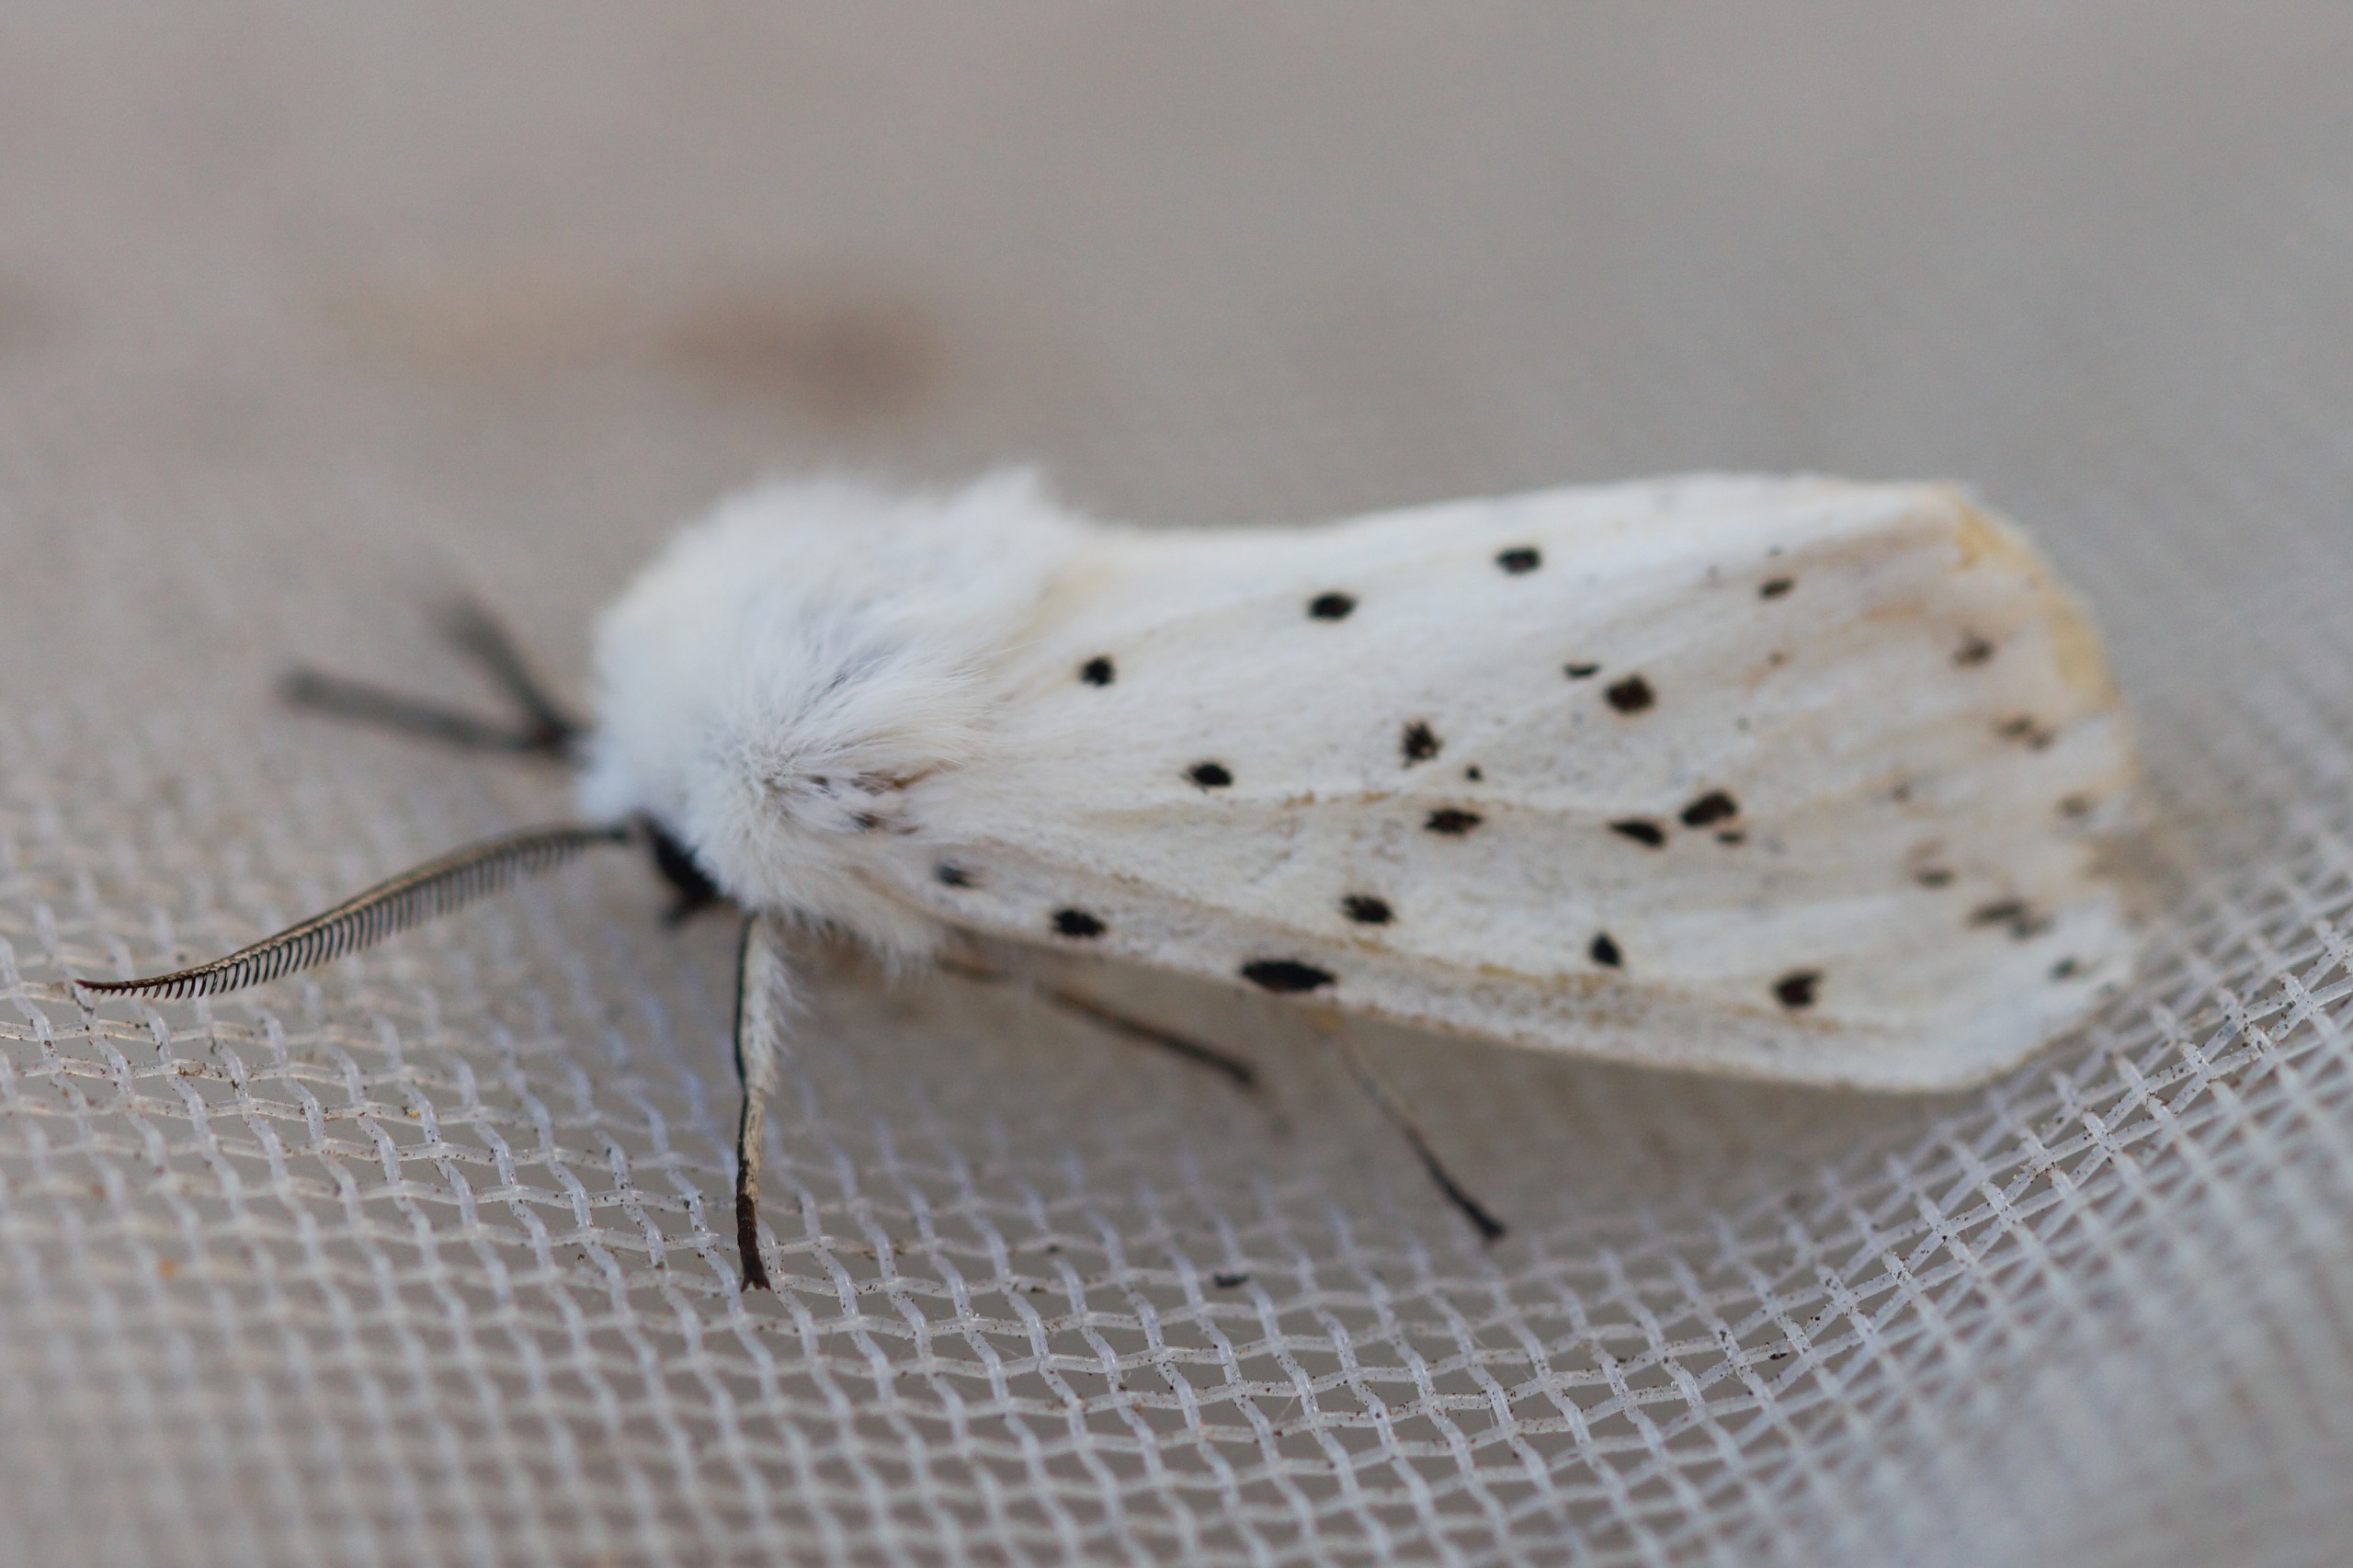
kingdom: Animalia
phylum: Arthropoda
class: Insecta
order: Lepidoptera
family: Erebidae
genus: Spilosoma
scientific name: Spilosoma lubricipeda
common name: Almindelig tigerspinder
